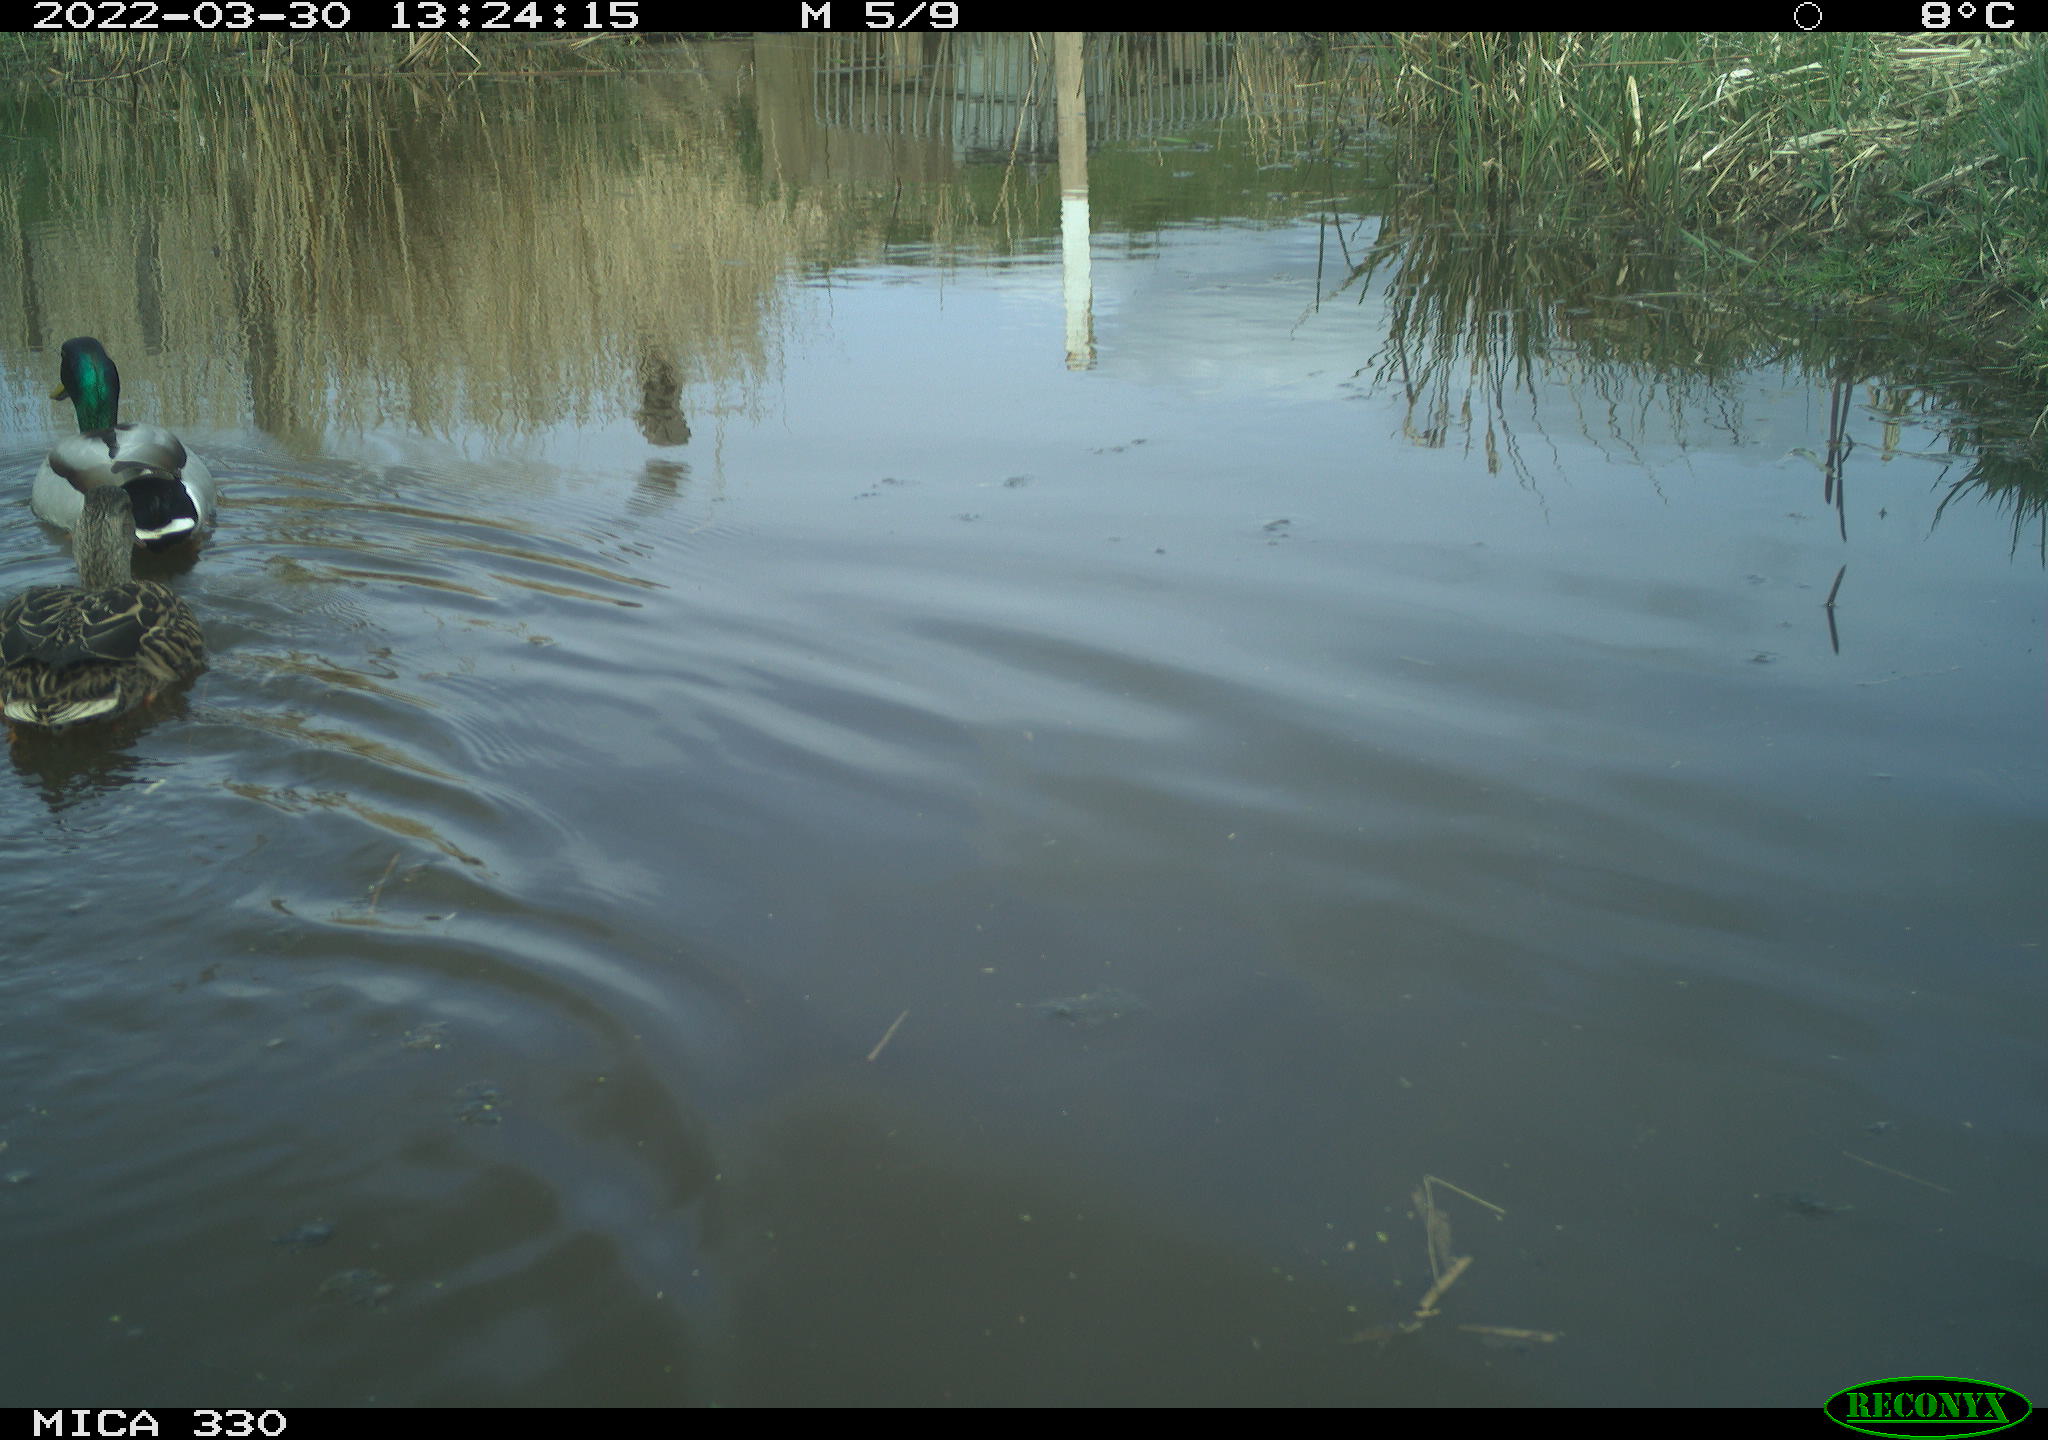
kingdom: Animalia
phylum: Chordata
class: Aves
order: Anseriformes
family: Anatidae
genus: Anas
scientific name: Anas platyrhynchos
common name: Mallard
